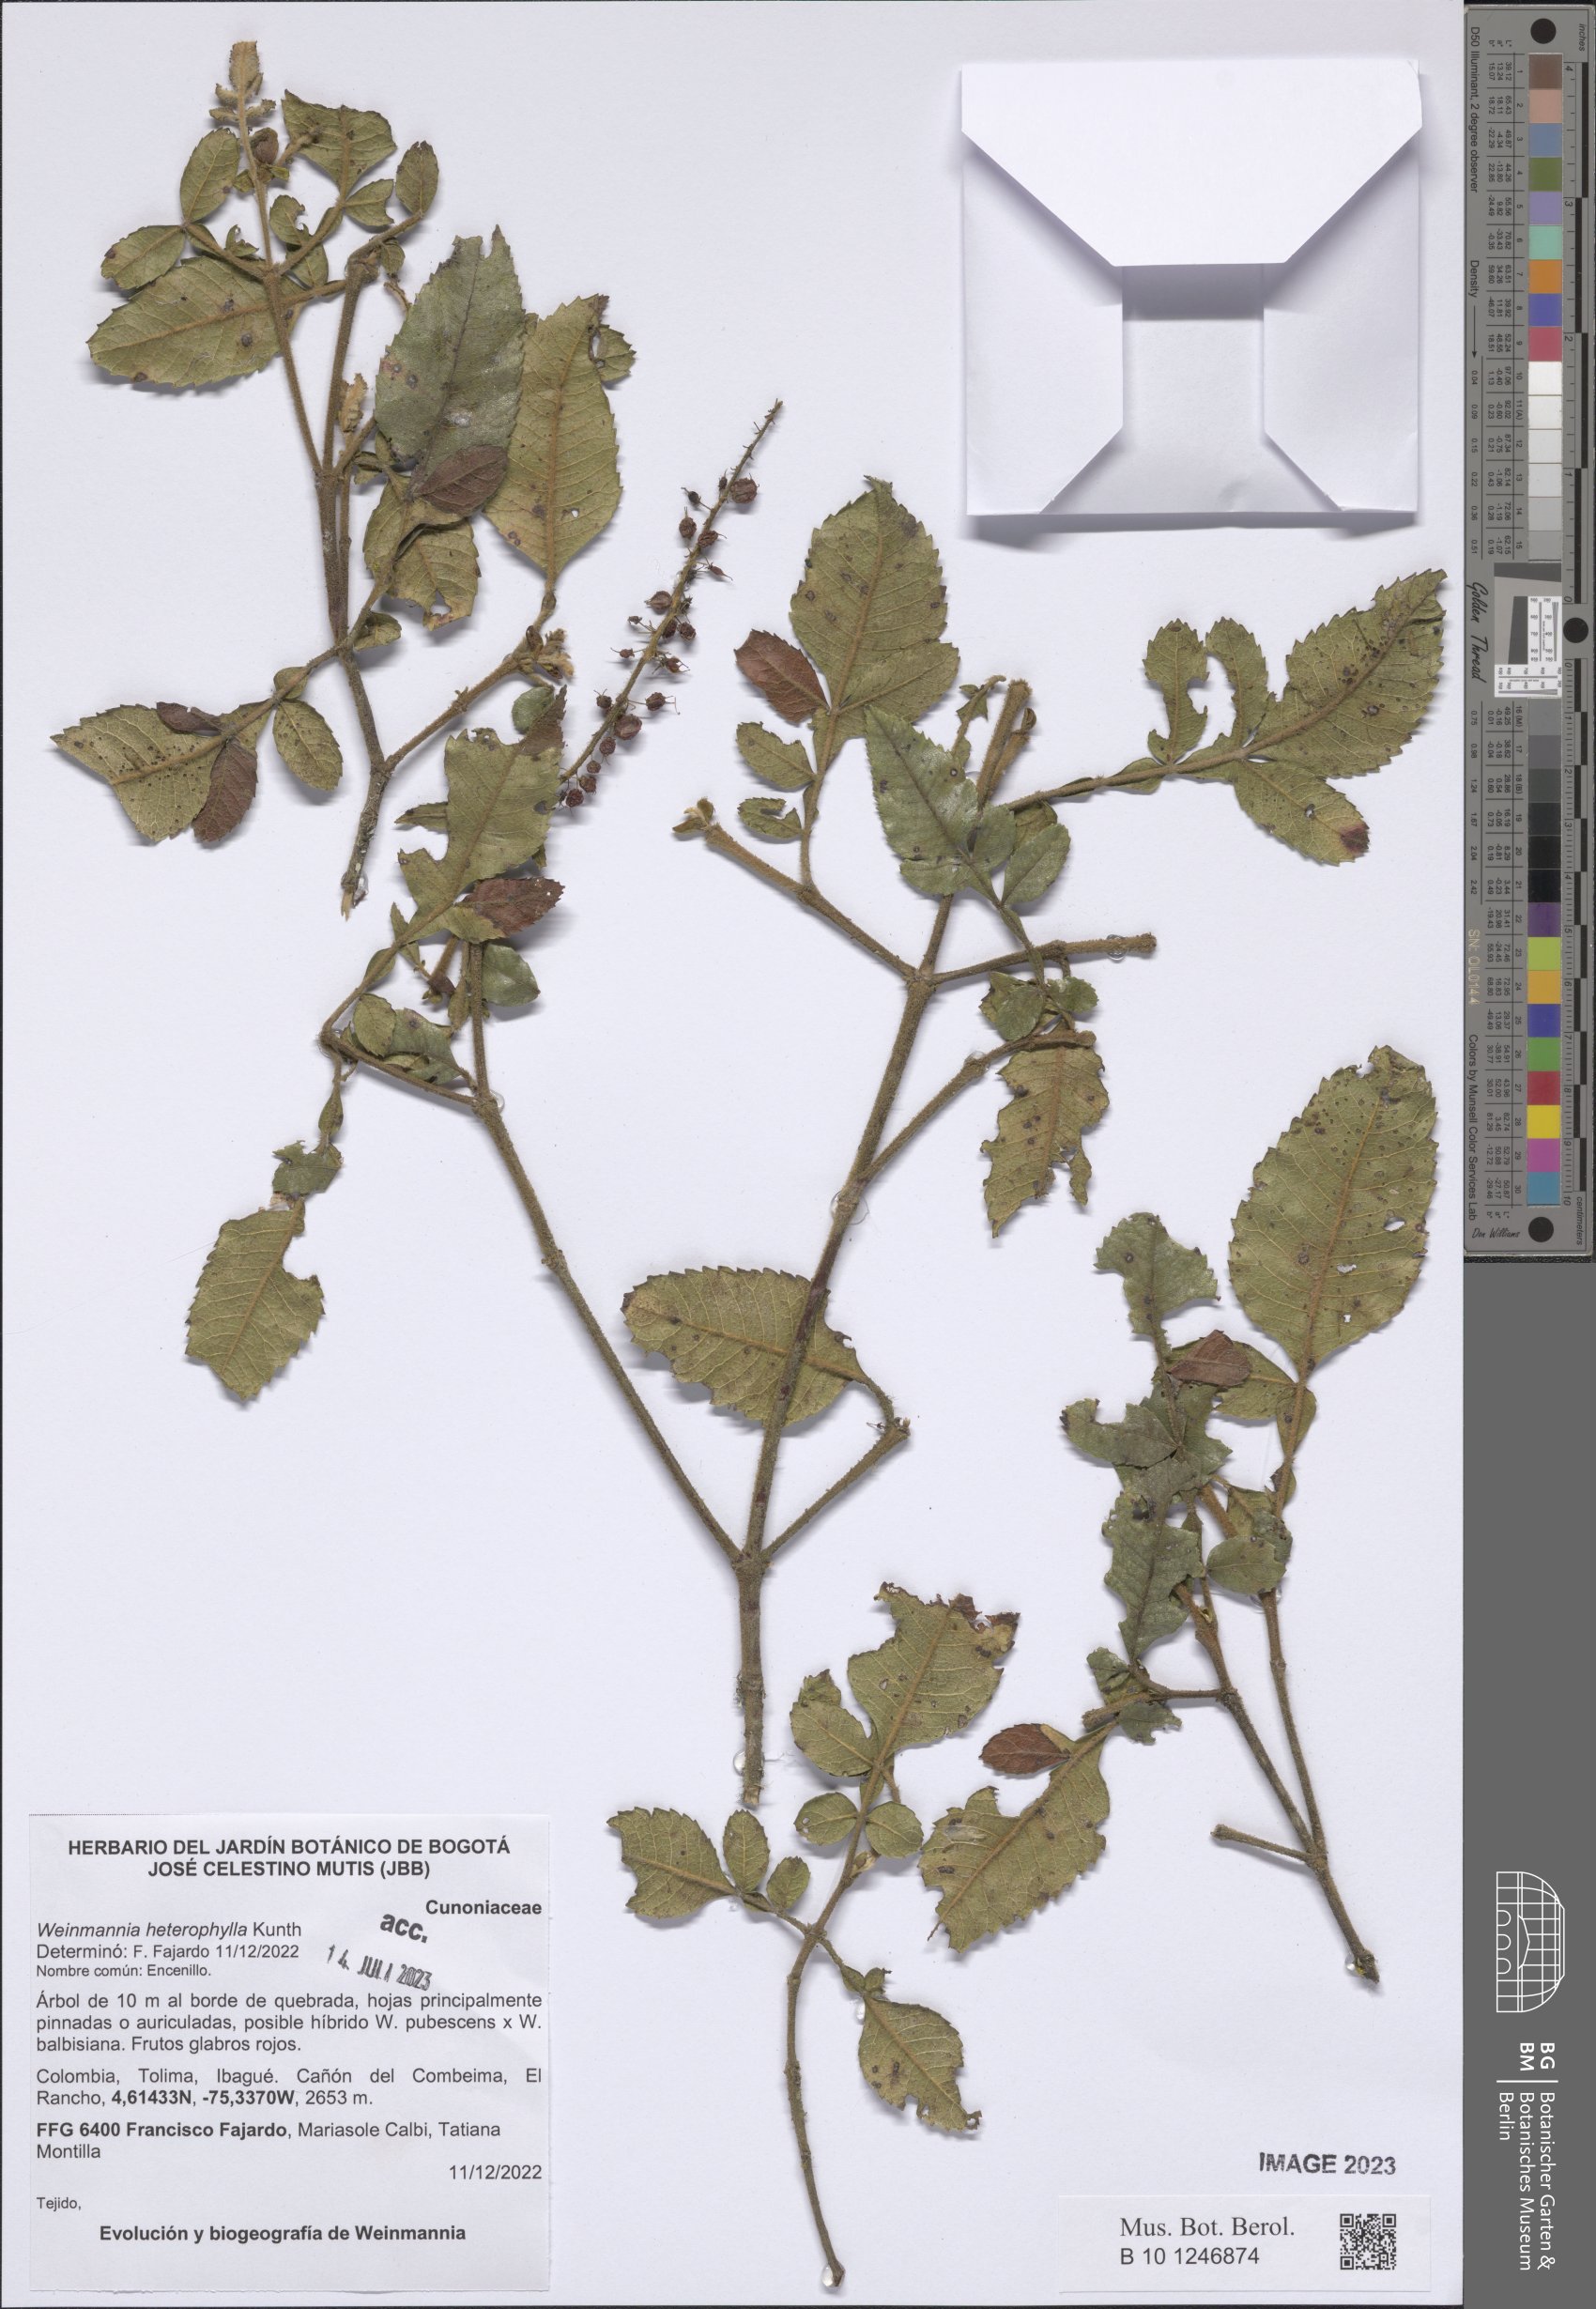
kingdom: Plantae
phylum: Tracheophyta
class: Magnoliopsida
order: Oxalidales
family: Cunoniaceae
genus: Weinmannia
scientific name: Weinmannia heterophylla
